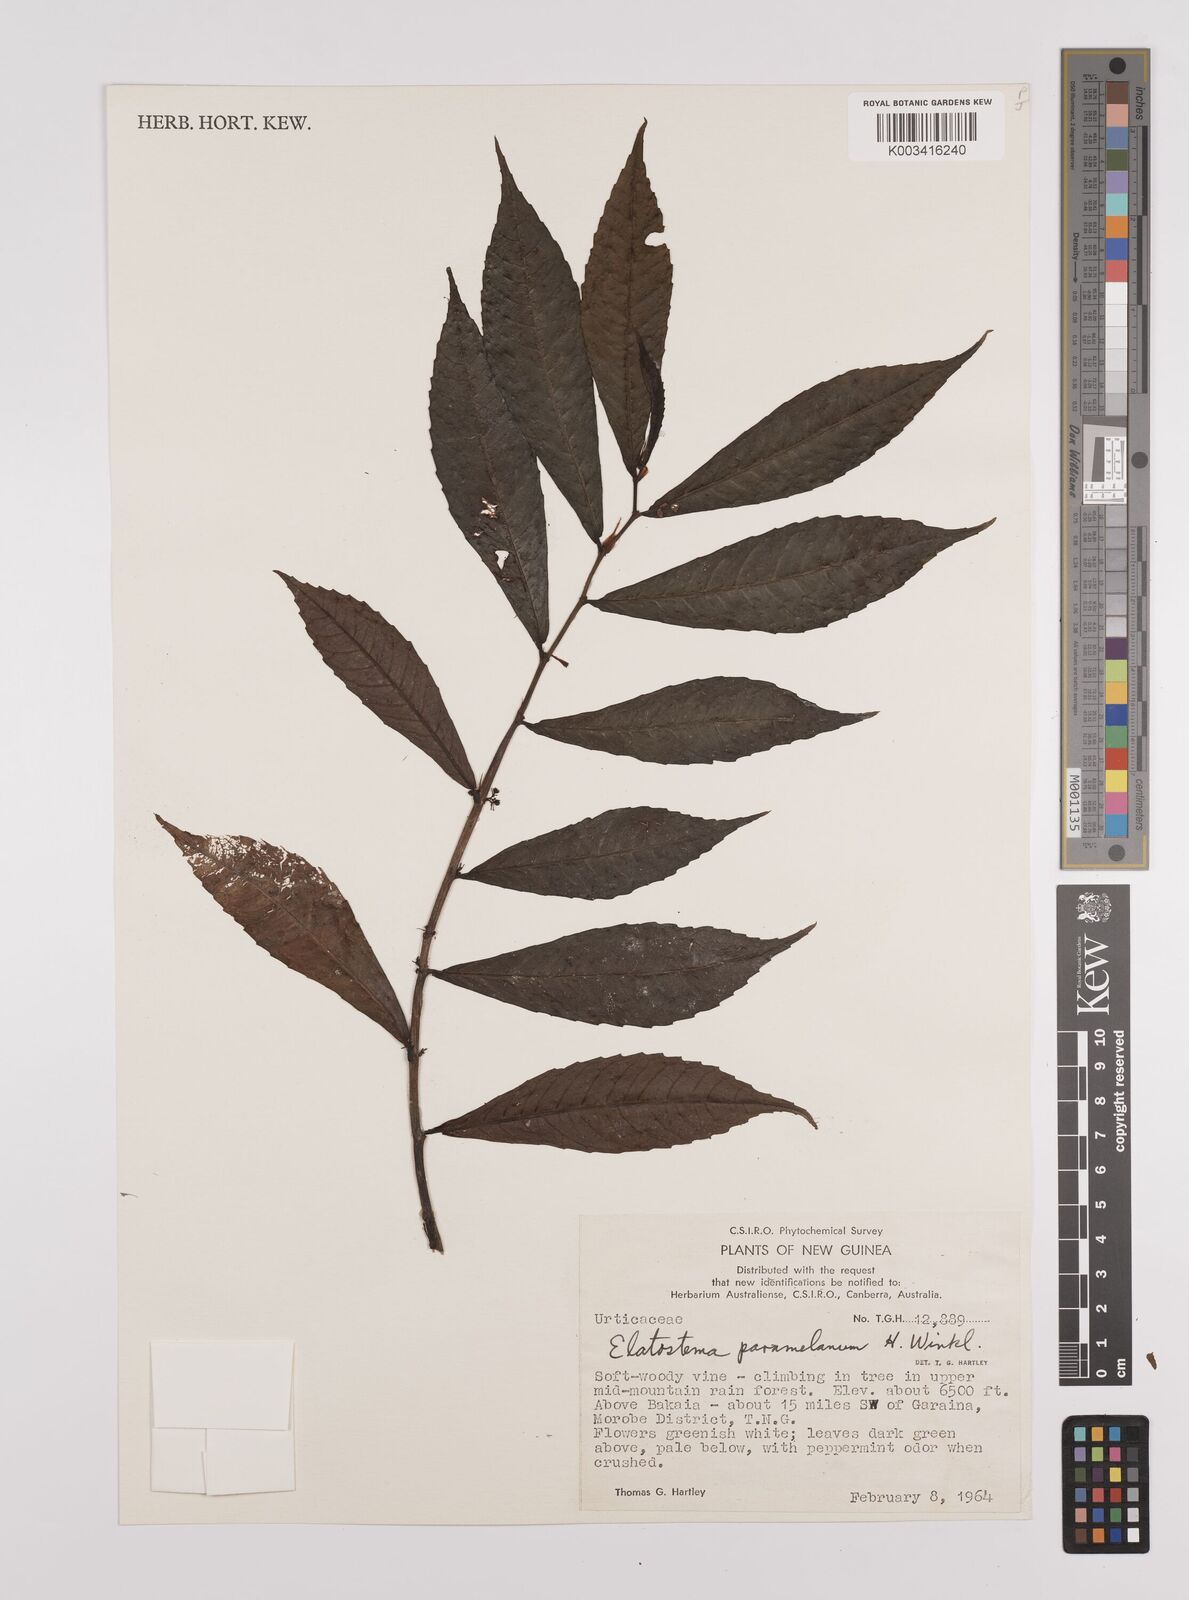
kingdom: Plantae
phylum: Tracheophyta
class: Magnoliopsida
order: Rosales
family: Urticaceae
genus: Elatostema
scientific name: Elatostema paramelanum
